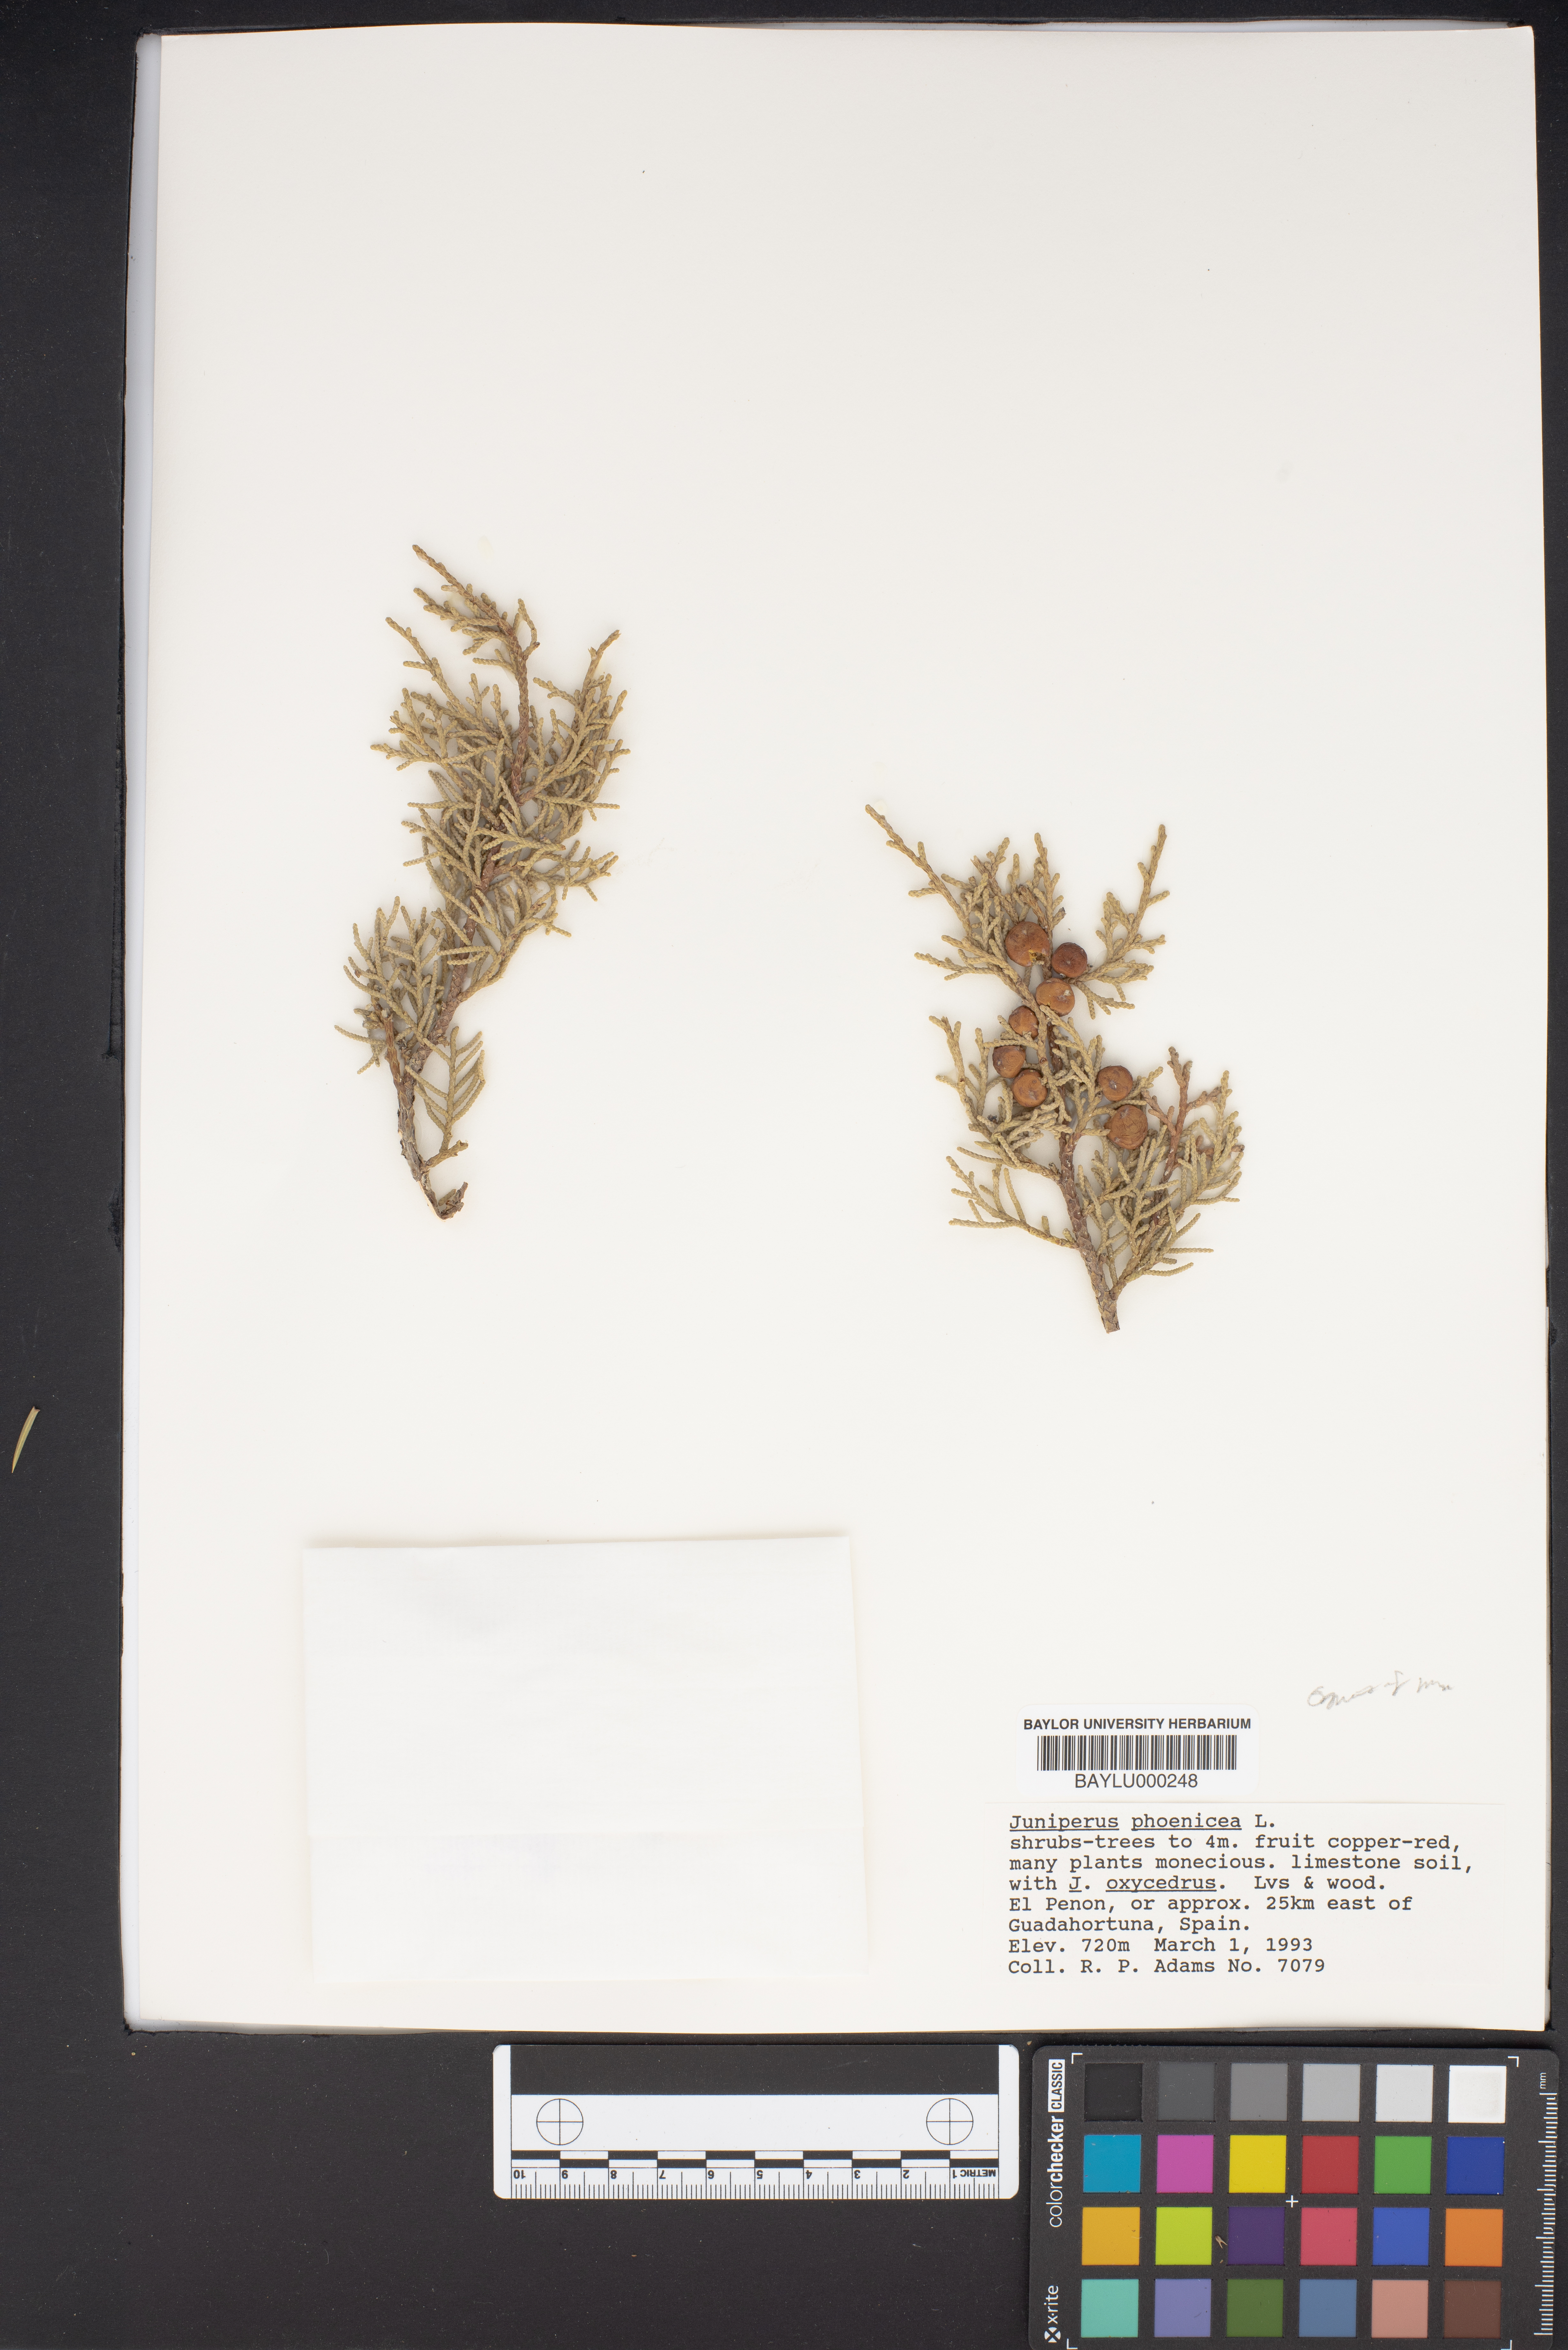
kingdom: Plantae
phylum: Tracheophyta
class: Pinopsida
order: Pinales
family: Cupressaceae
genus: Juniperus
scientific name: Juniperus phoenicea
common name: Phoenician juniper
